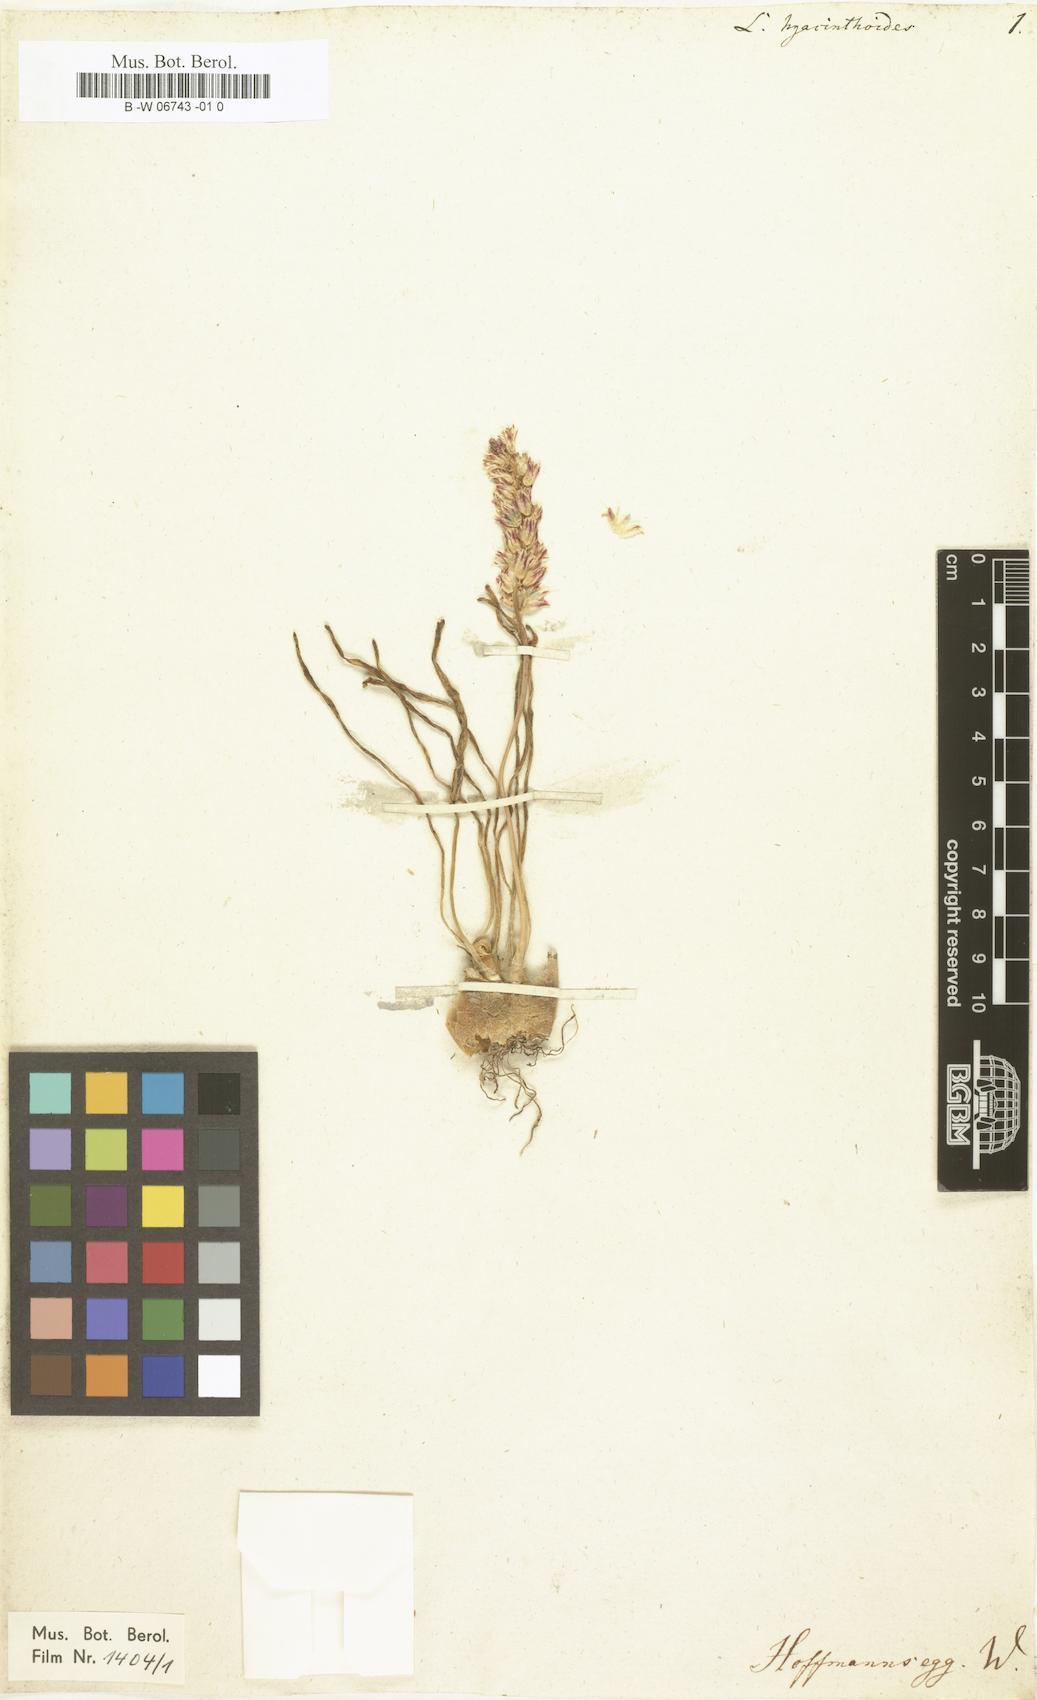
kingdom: Plantae
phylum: Tracheophyta
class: Liliopsida
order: Asparagales
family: Asparagaceae
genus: Lachenalia
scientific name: Lachenalia
